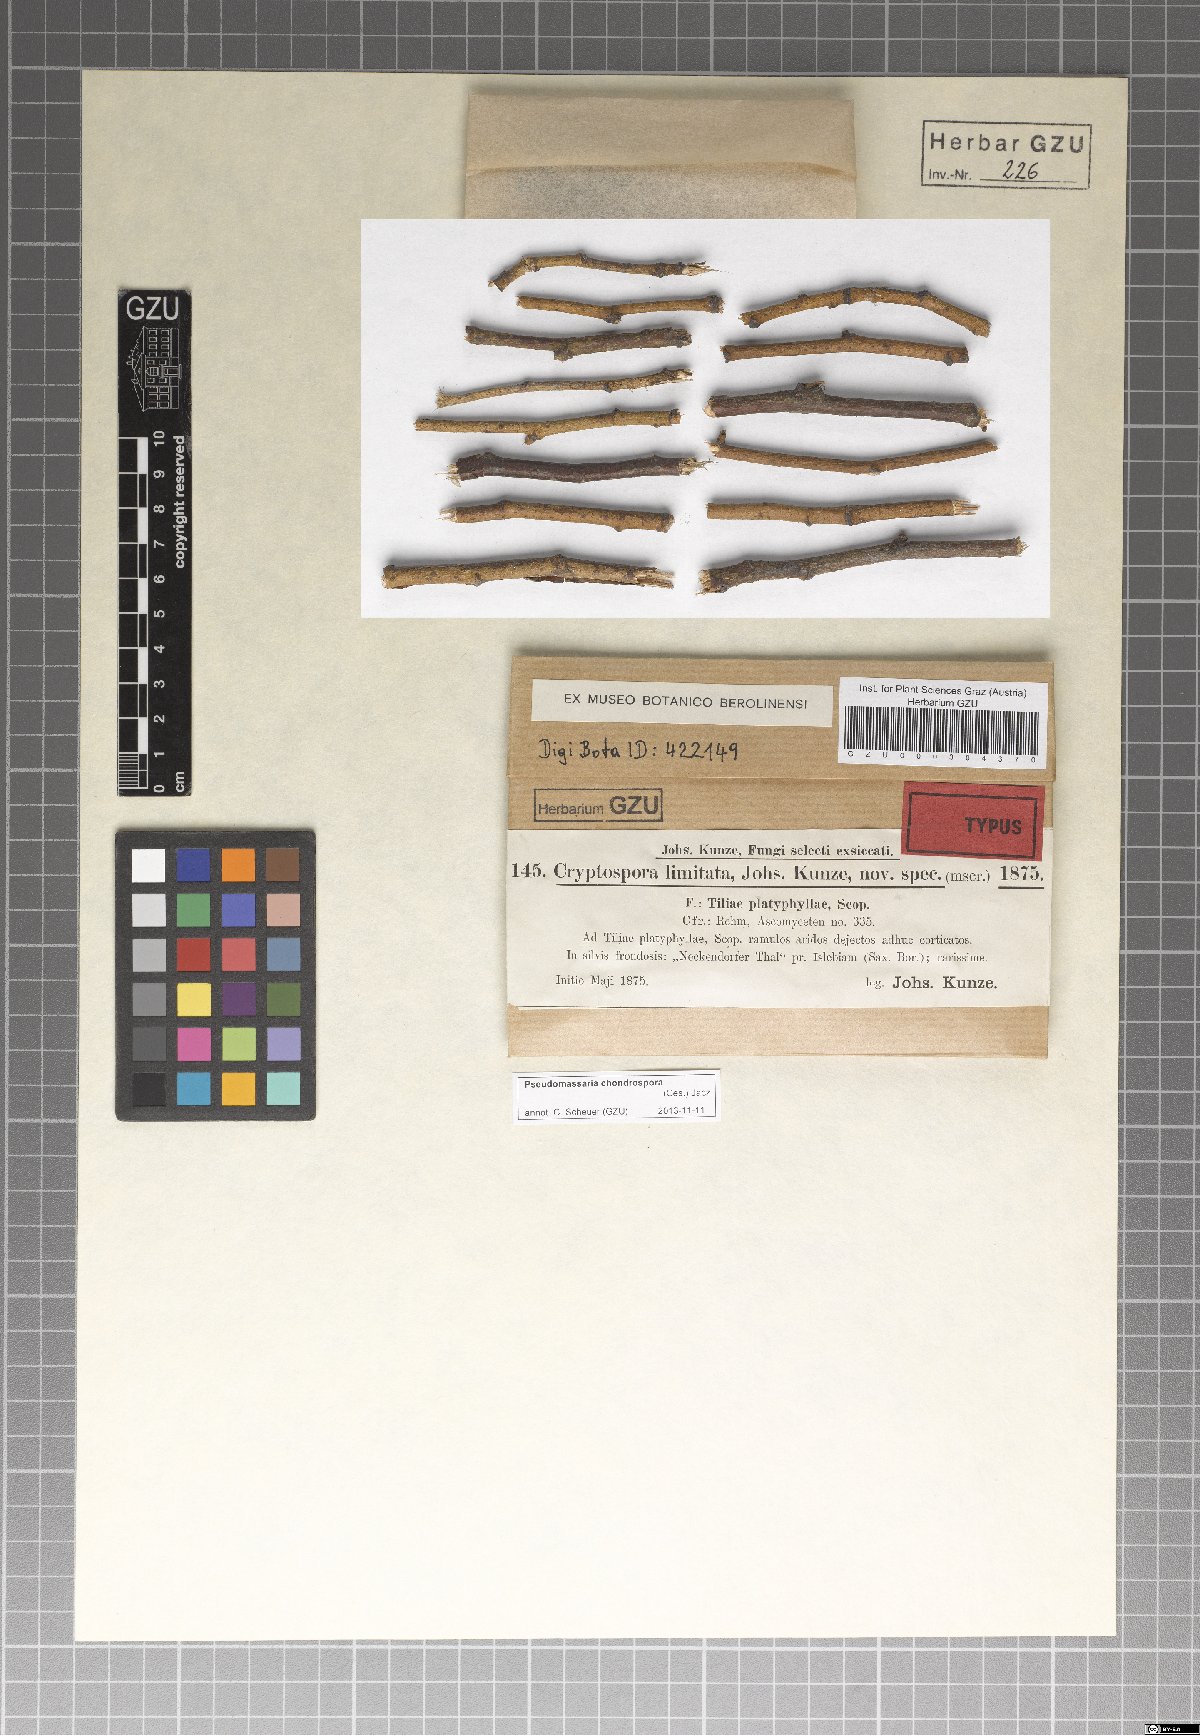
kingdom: Fungi
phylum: Ascomycota
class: Sordariomycetes
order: Diaporthales
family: Gnomoniaceae
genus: Cryptospora
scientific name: Cryptospora
